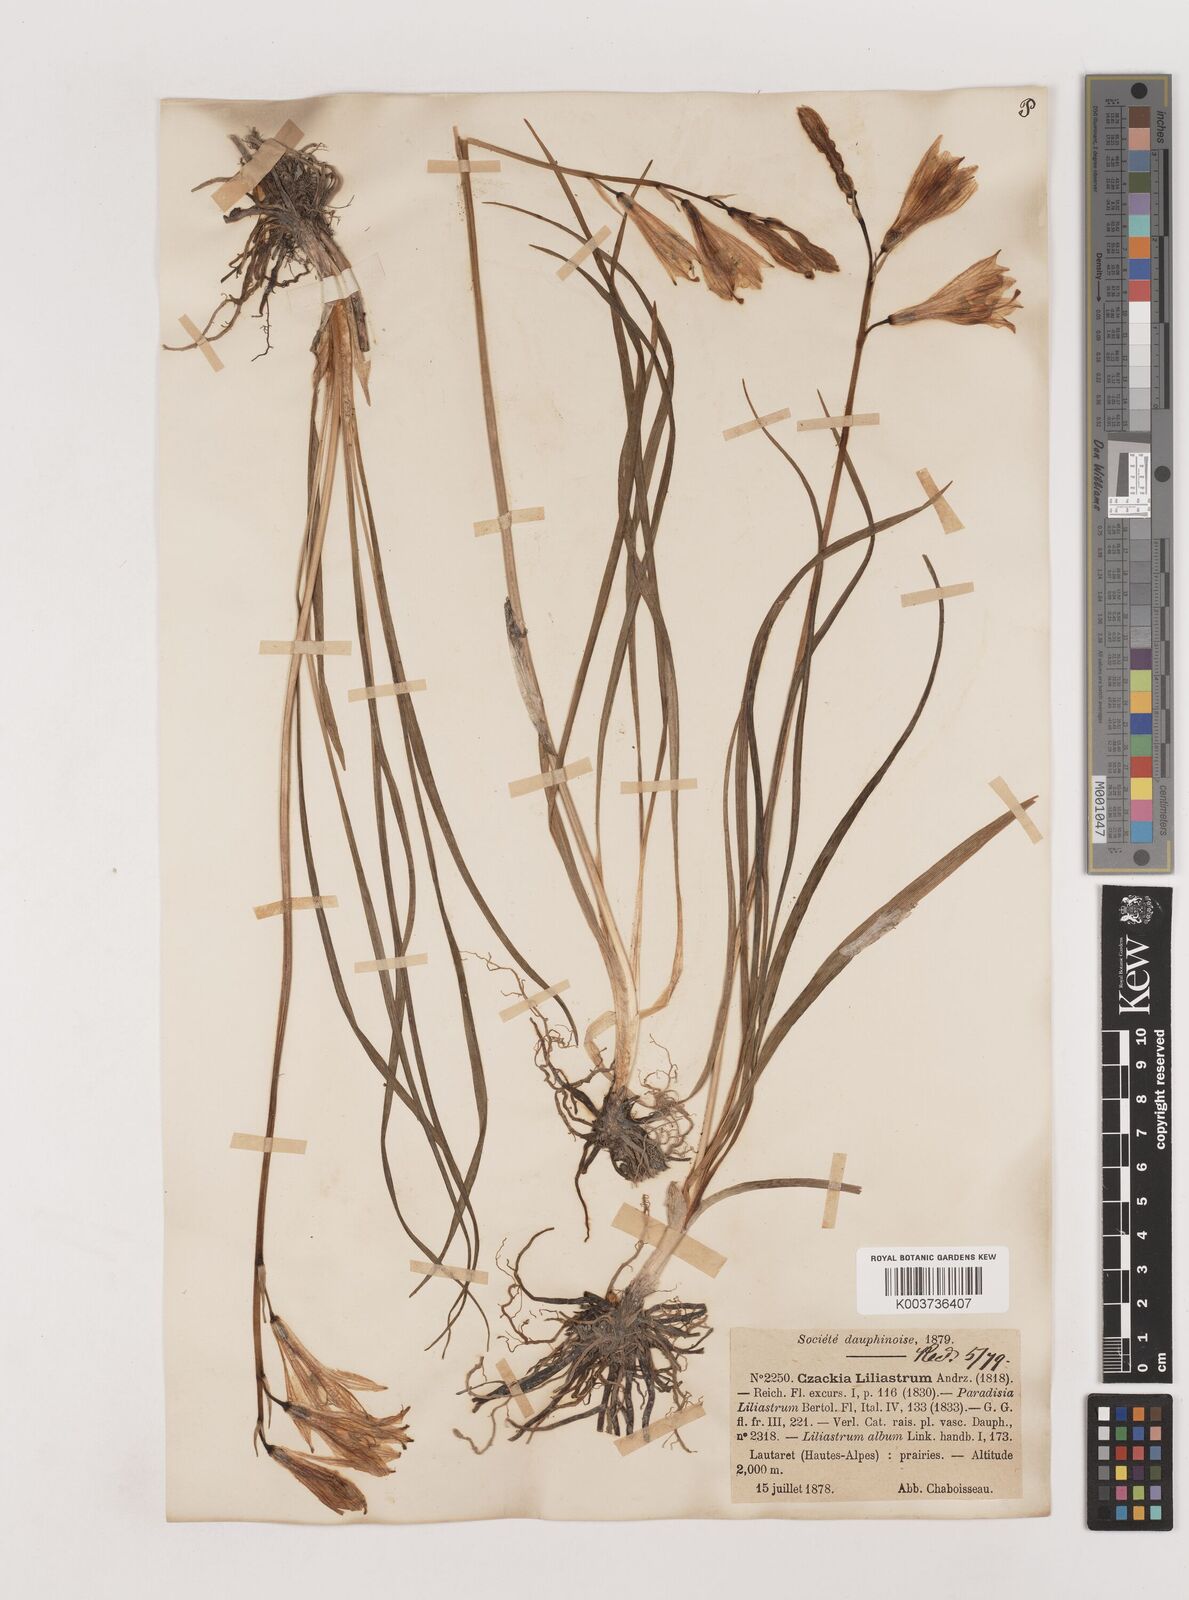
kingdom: Plantae
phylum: Tracheophyta
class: Liliopsida
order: Asparagales
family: Asparagaceae
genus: Paradisea
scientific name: Paradisea liliastrum
